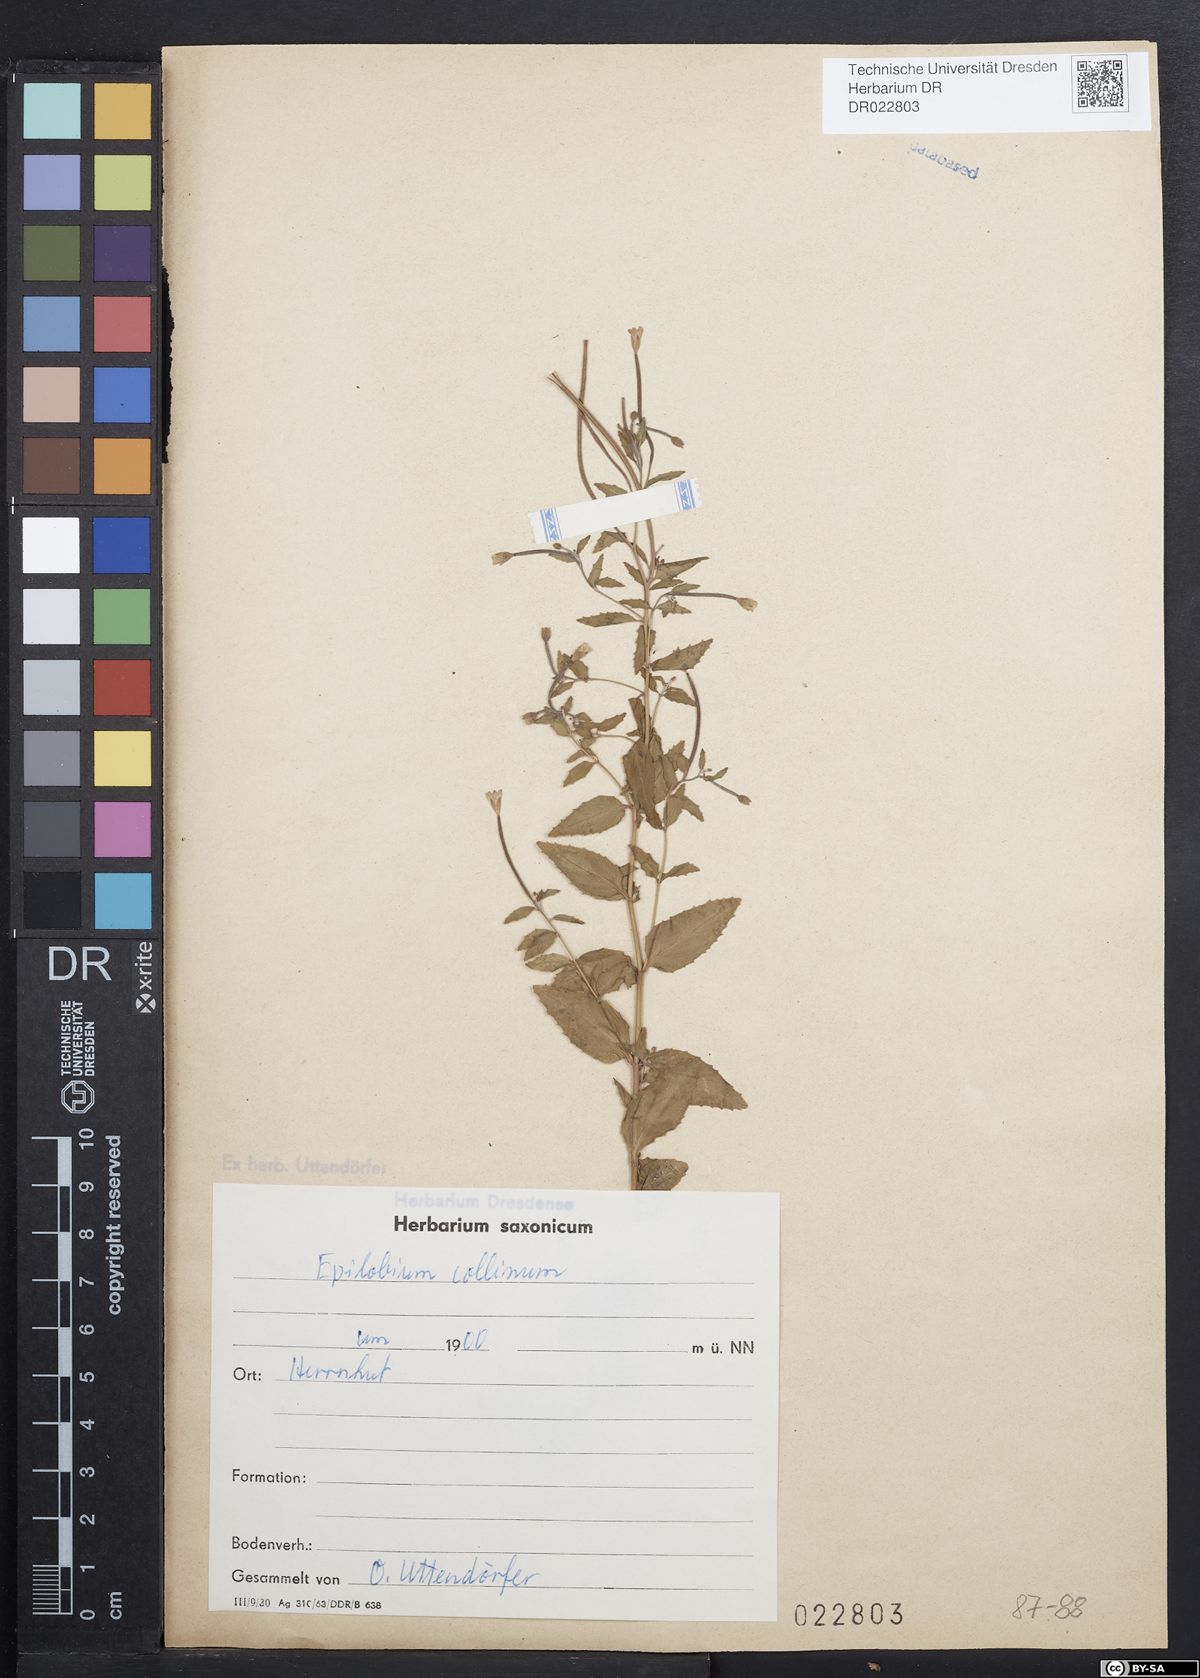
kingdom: Plantae
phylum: Tracheophyta
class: Magnoliopsida
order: Myrtales
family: Onagraceae
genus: Epilobium
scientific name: Epilobium collinum
